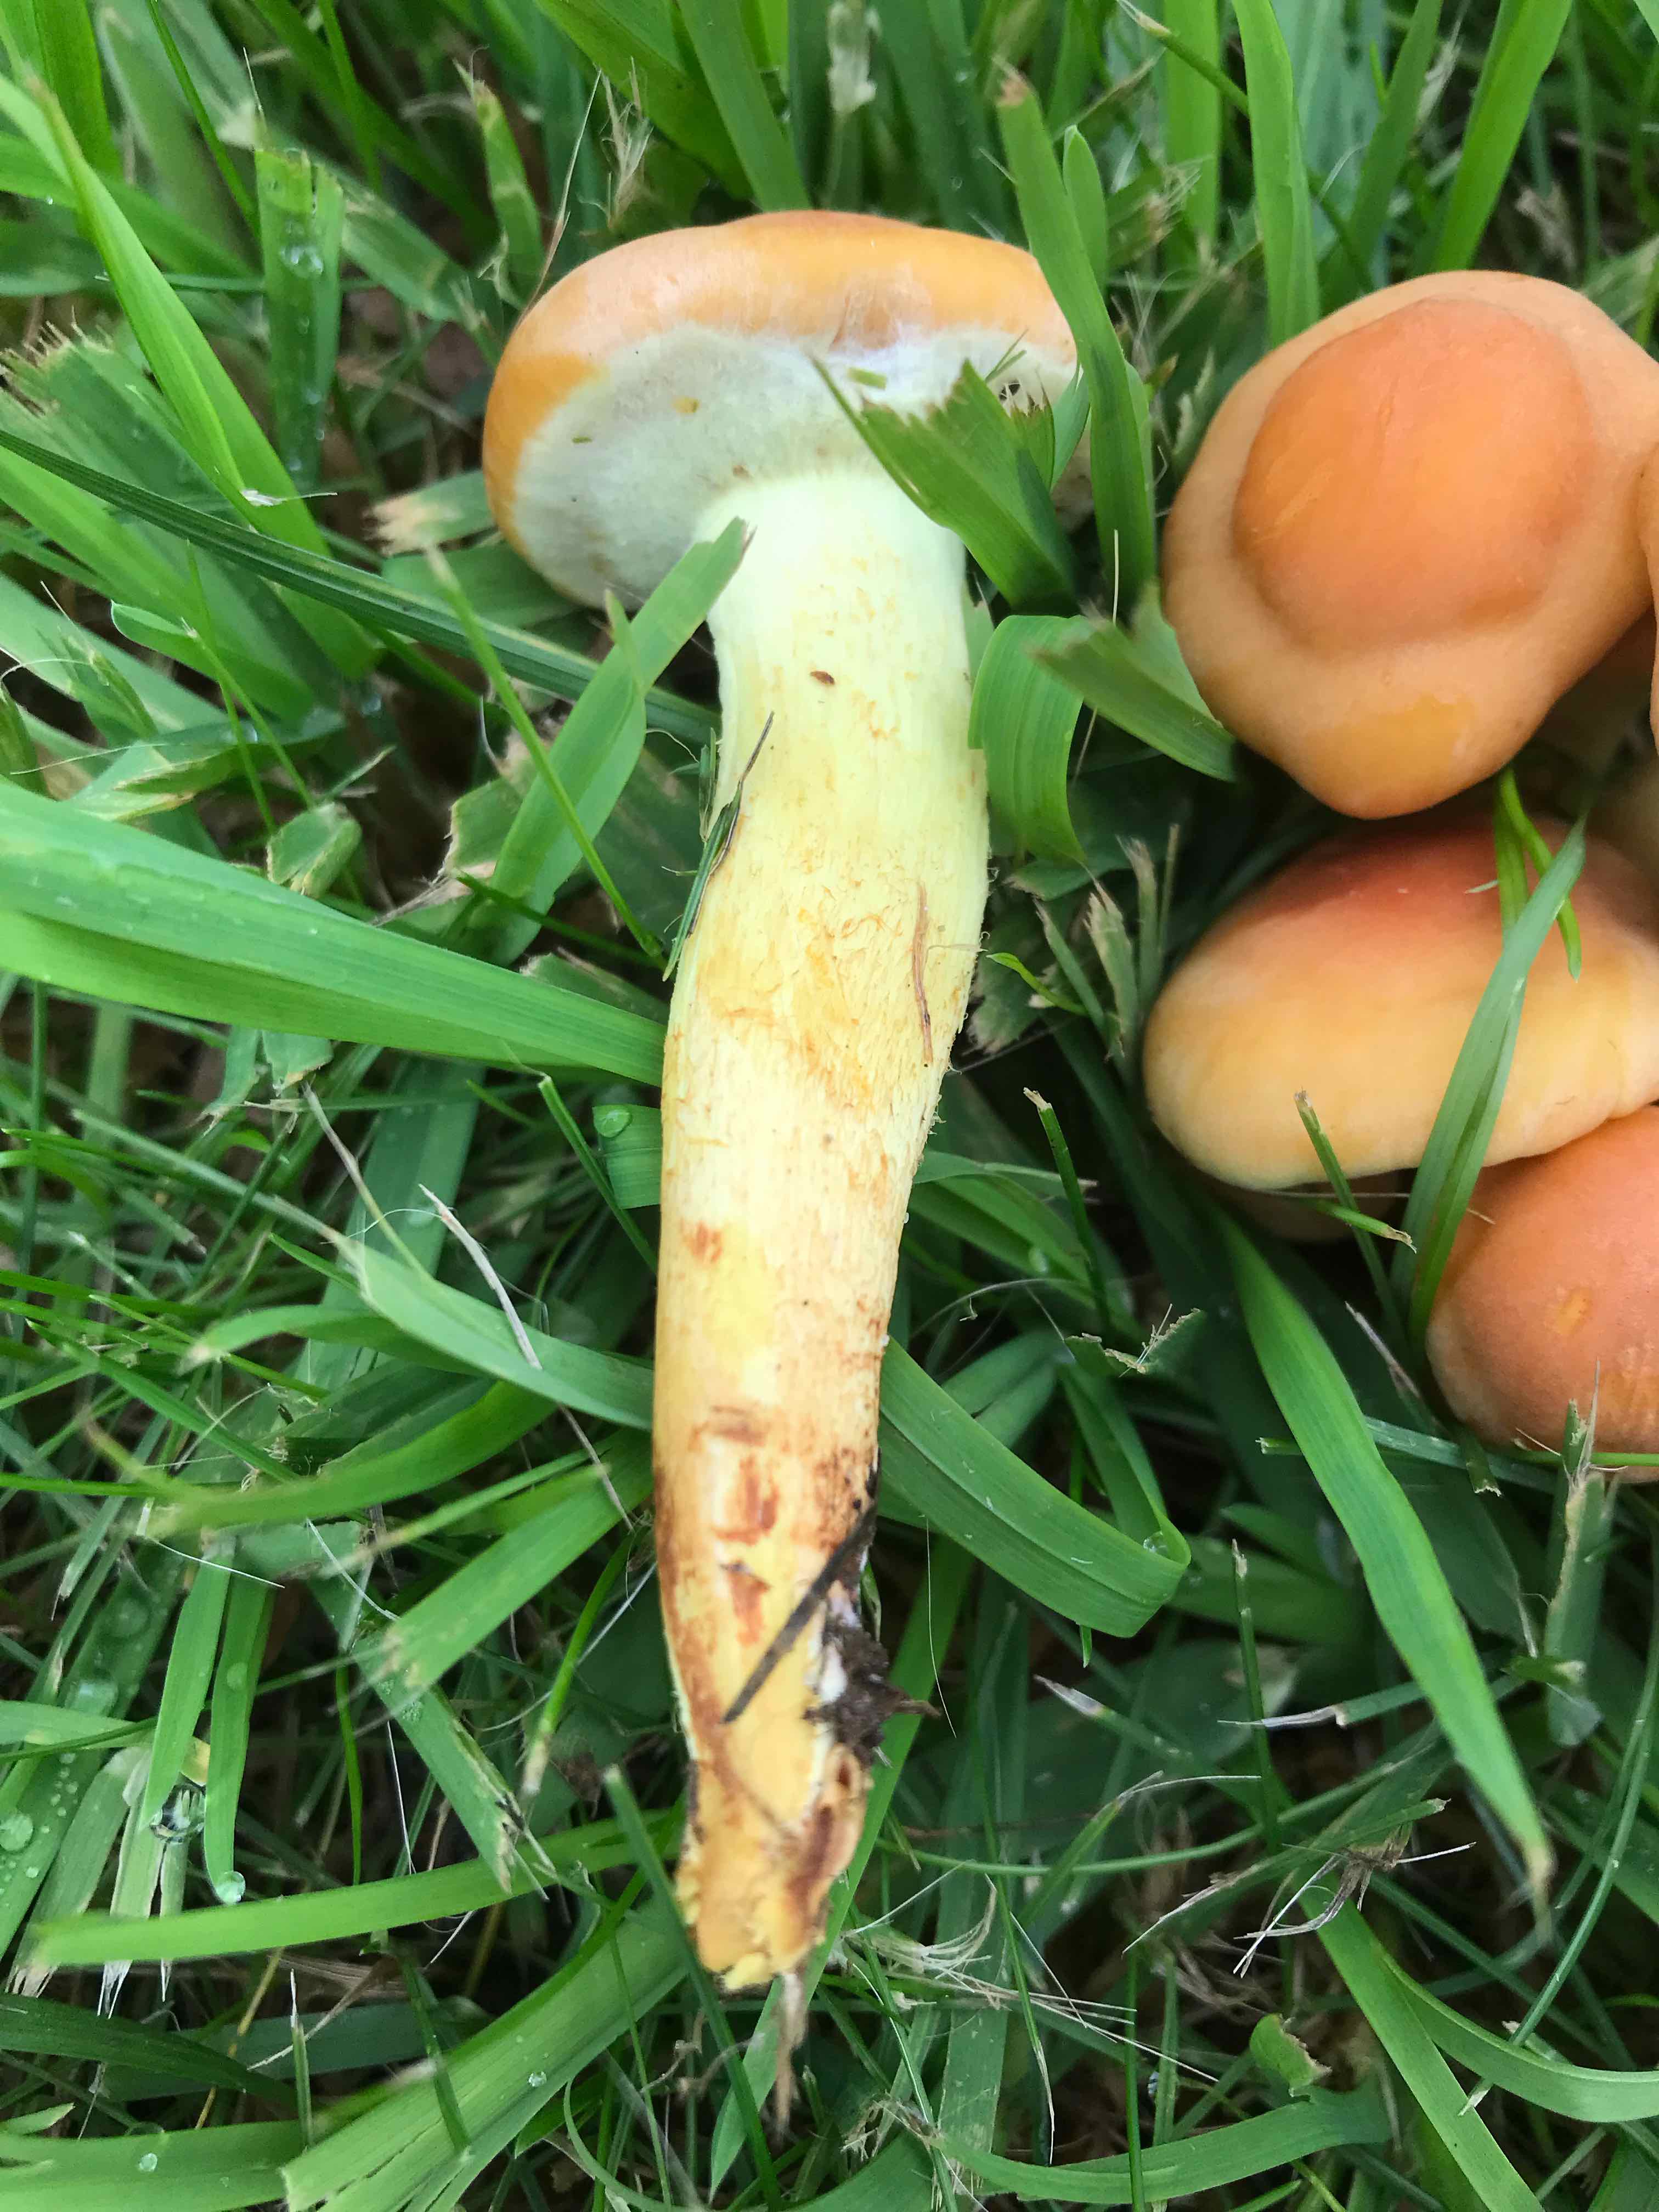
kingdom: Fungi
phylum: Basidiomycota
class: Agaricomycetes
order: Agaricales
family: Strophariaceae
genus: Hypholoma
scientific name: Hypholoma fasciculare
